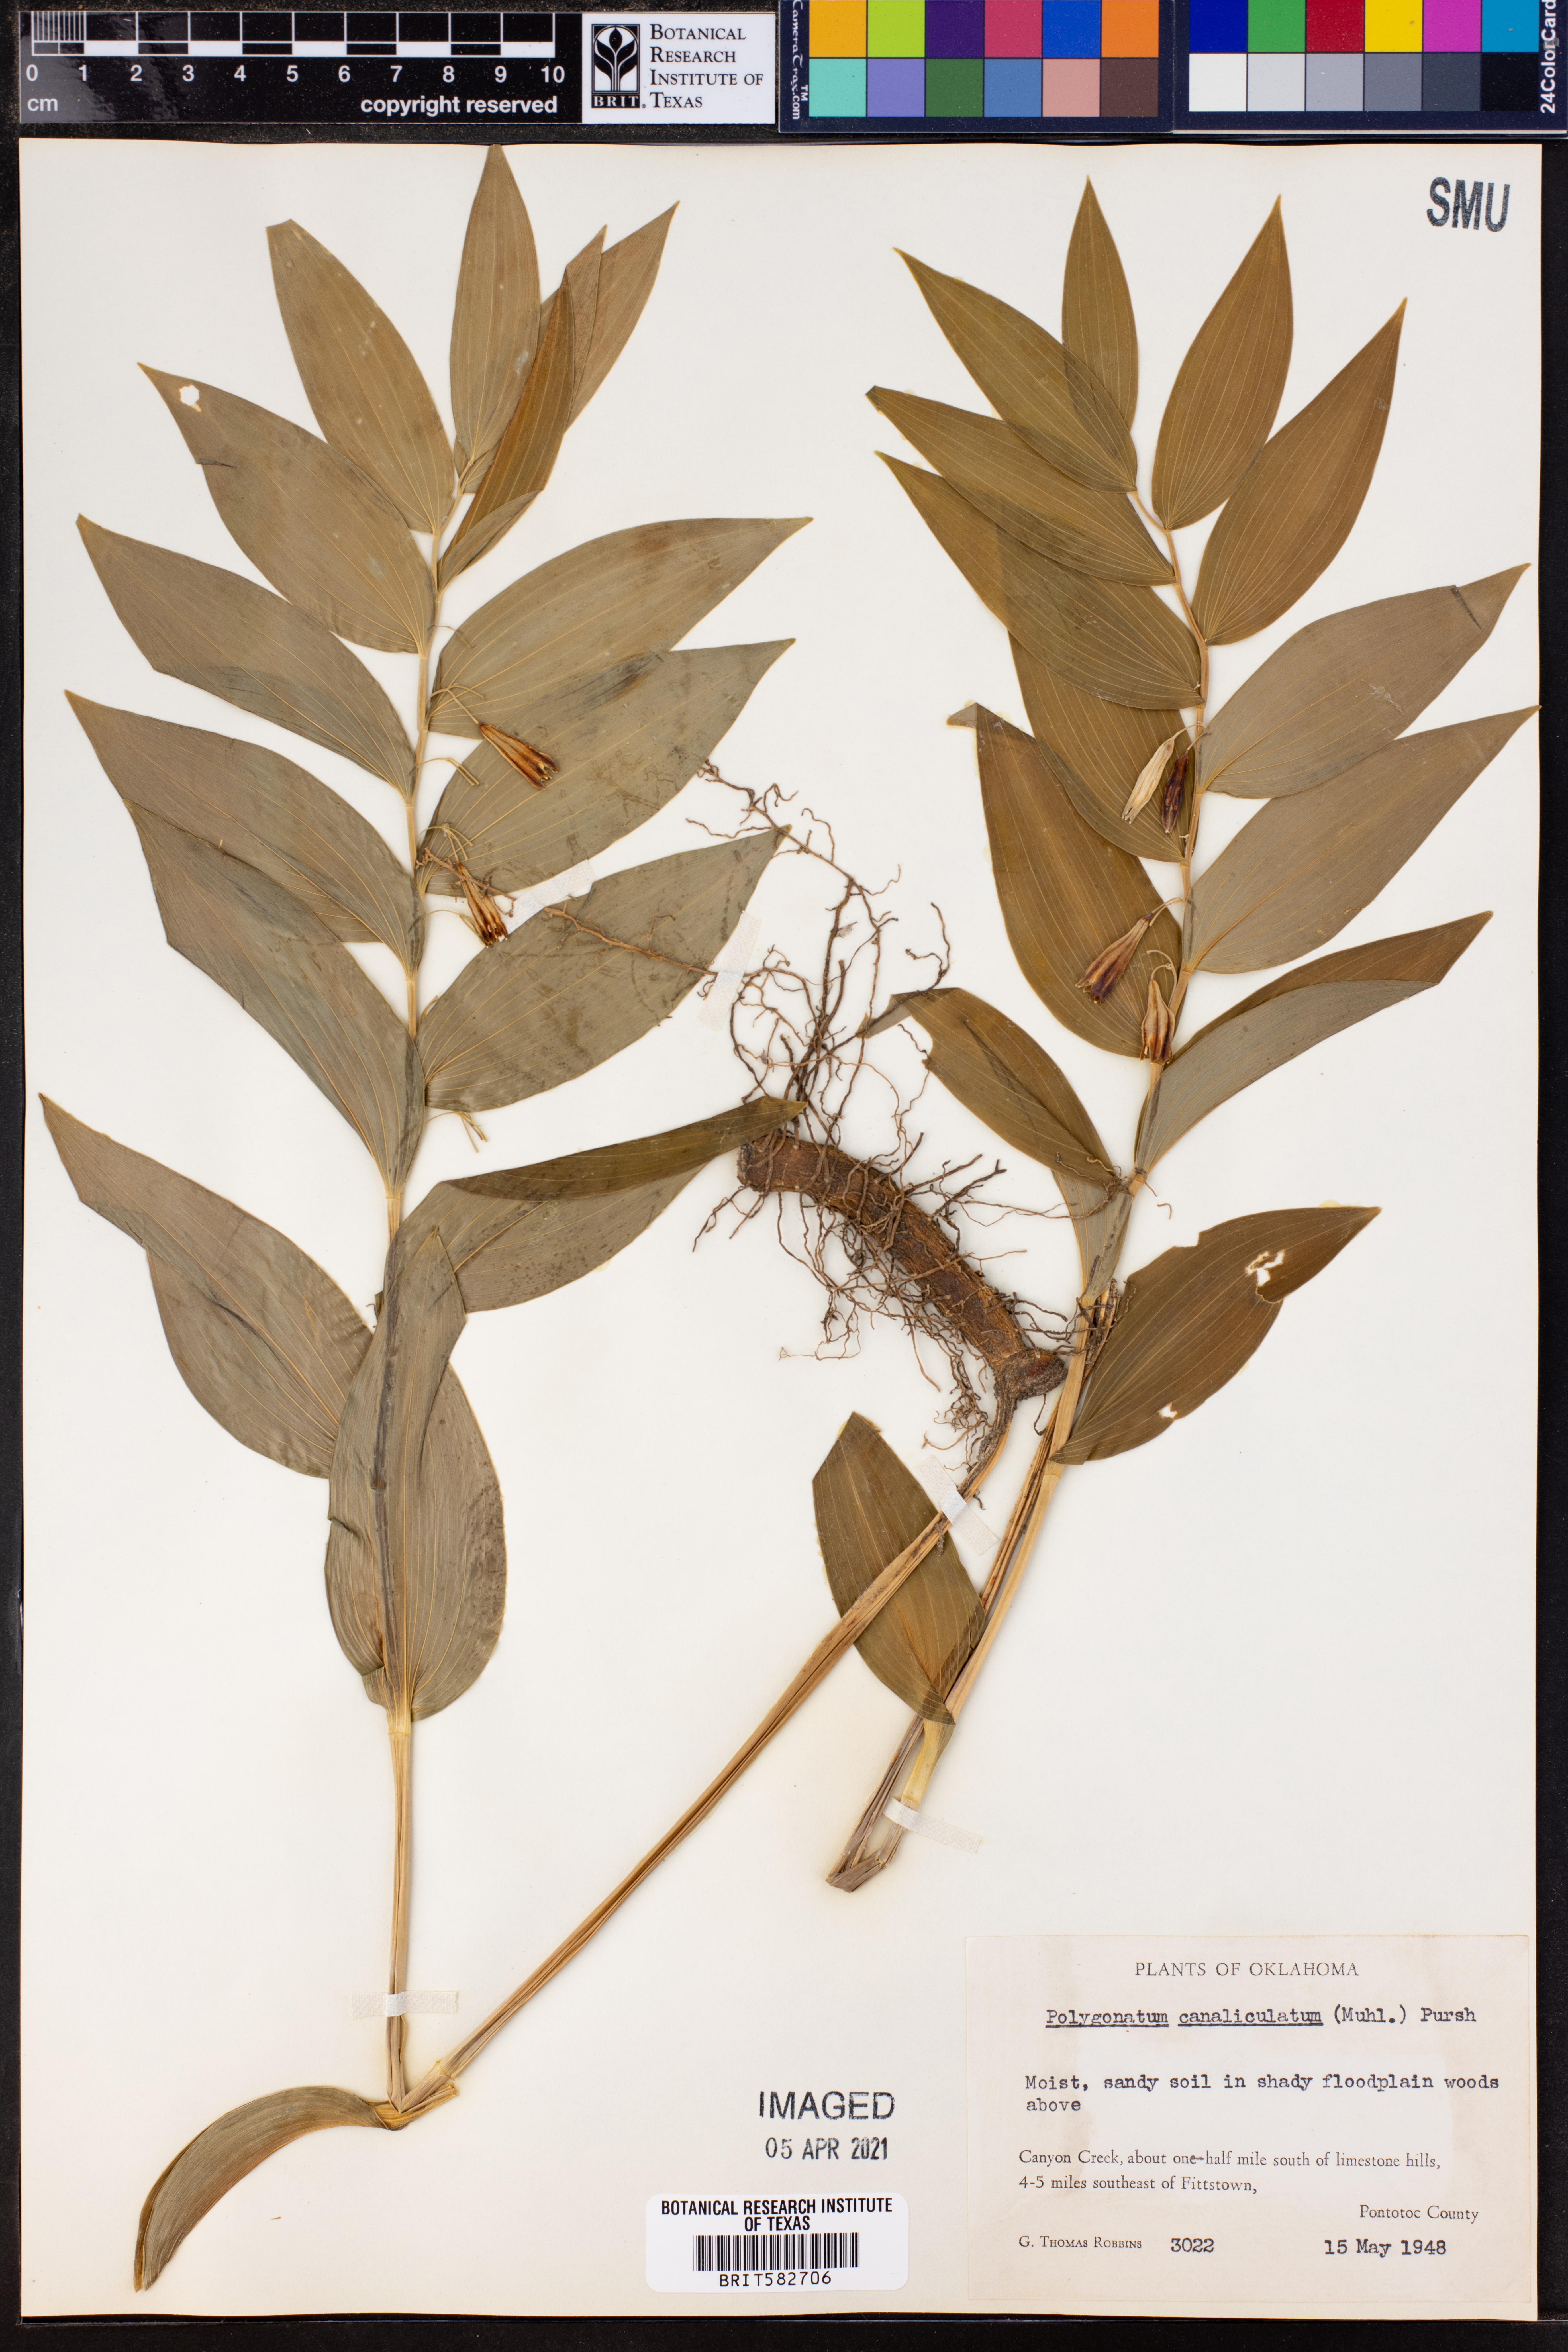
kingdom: Plantae
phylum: Tracheophyta
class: Liliopsida
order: Asparagales
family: Asparagaceae
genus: Polygonatum
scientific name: Polygonatum biflorum
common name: American solomon's-seal
